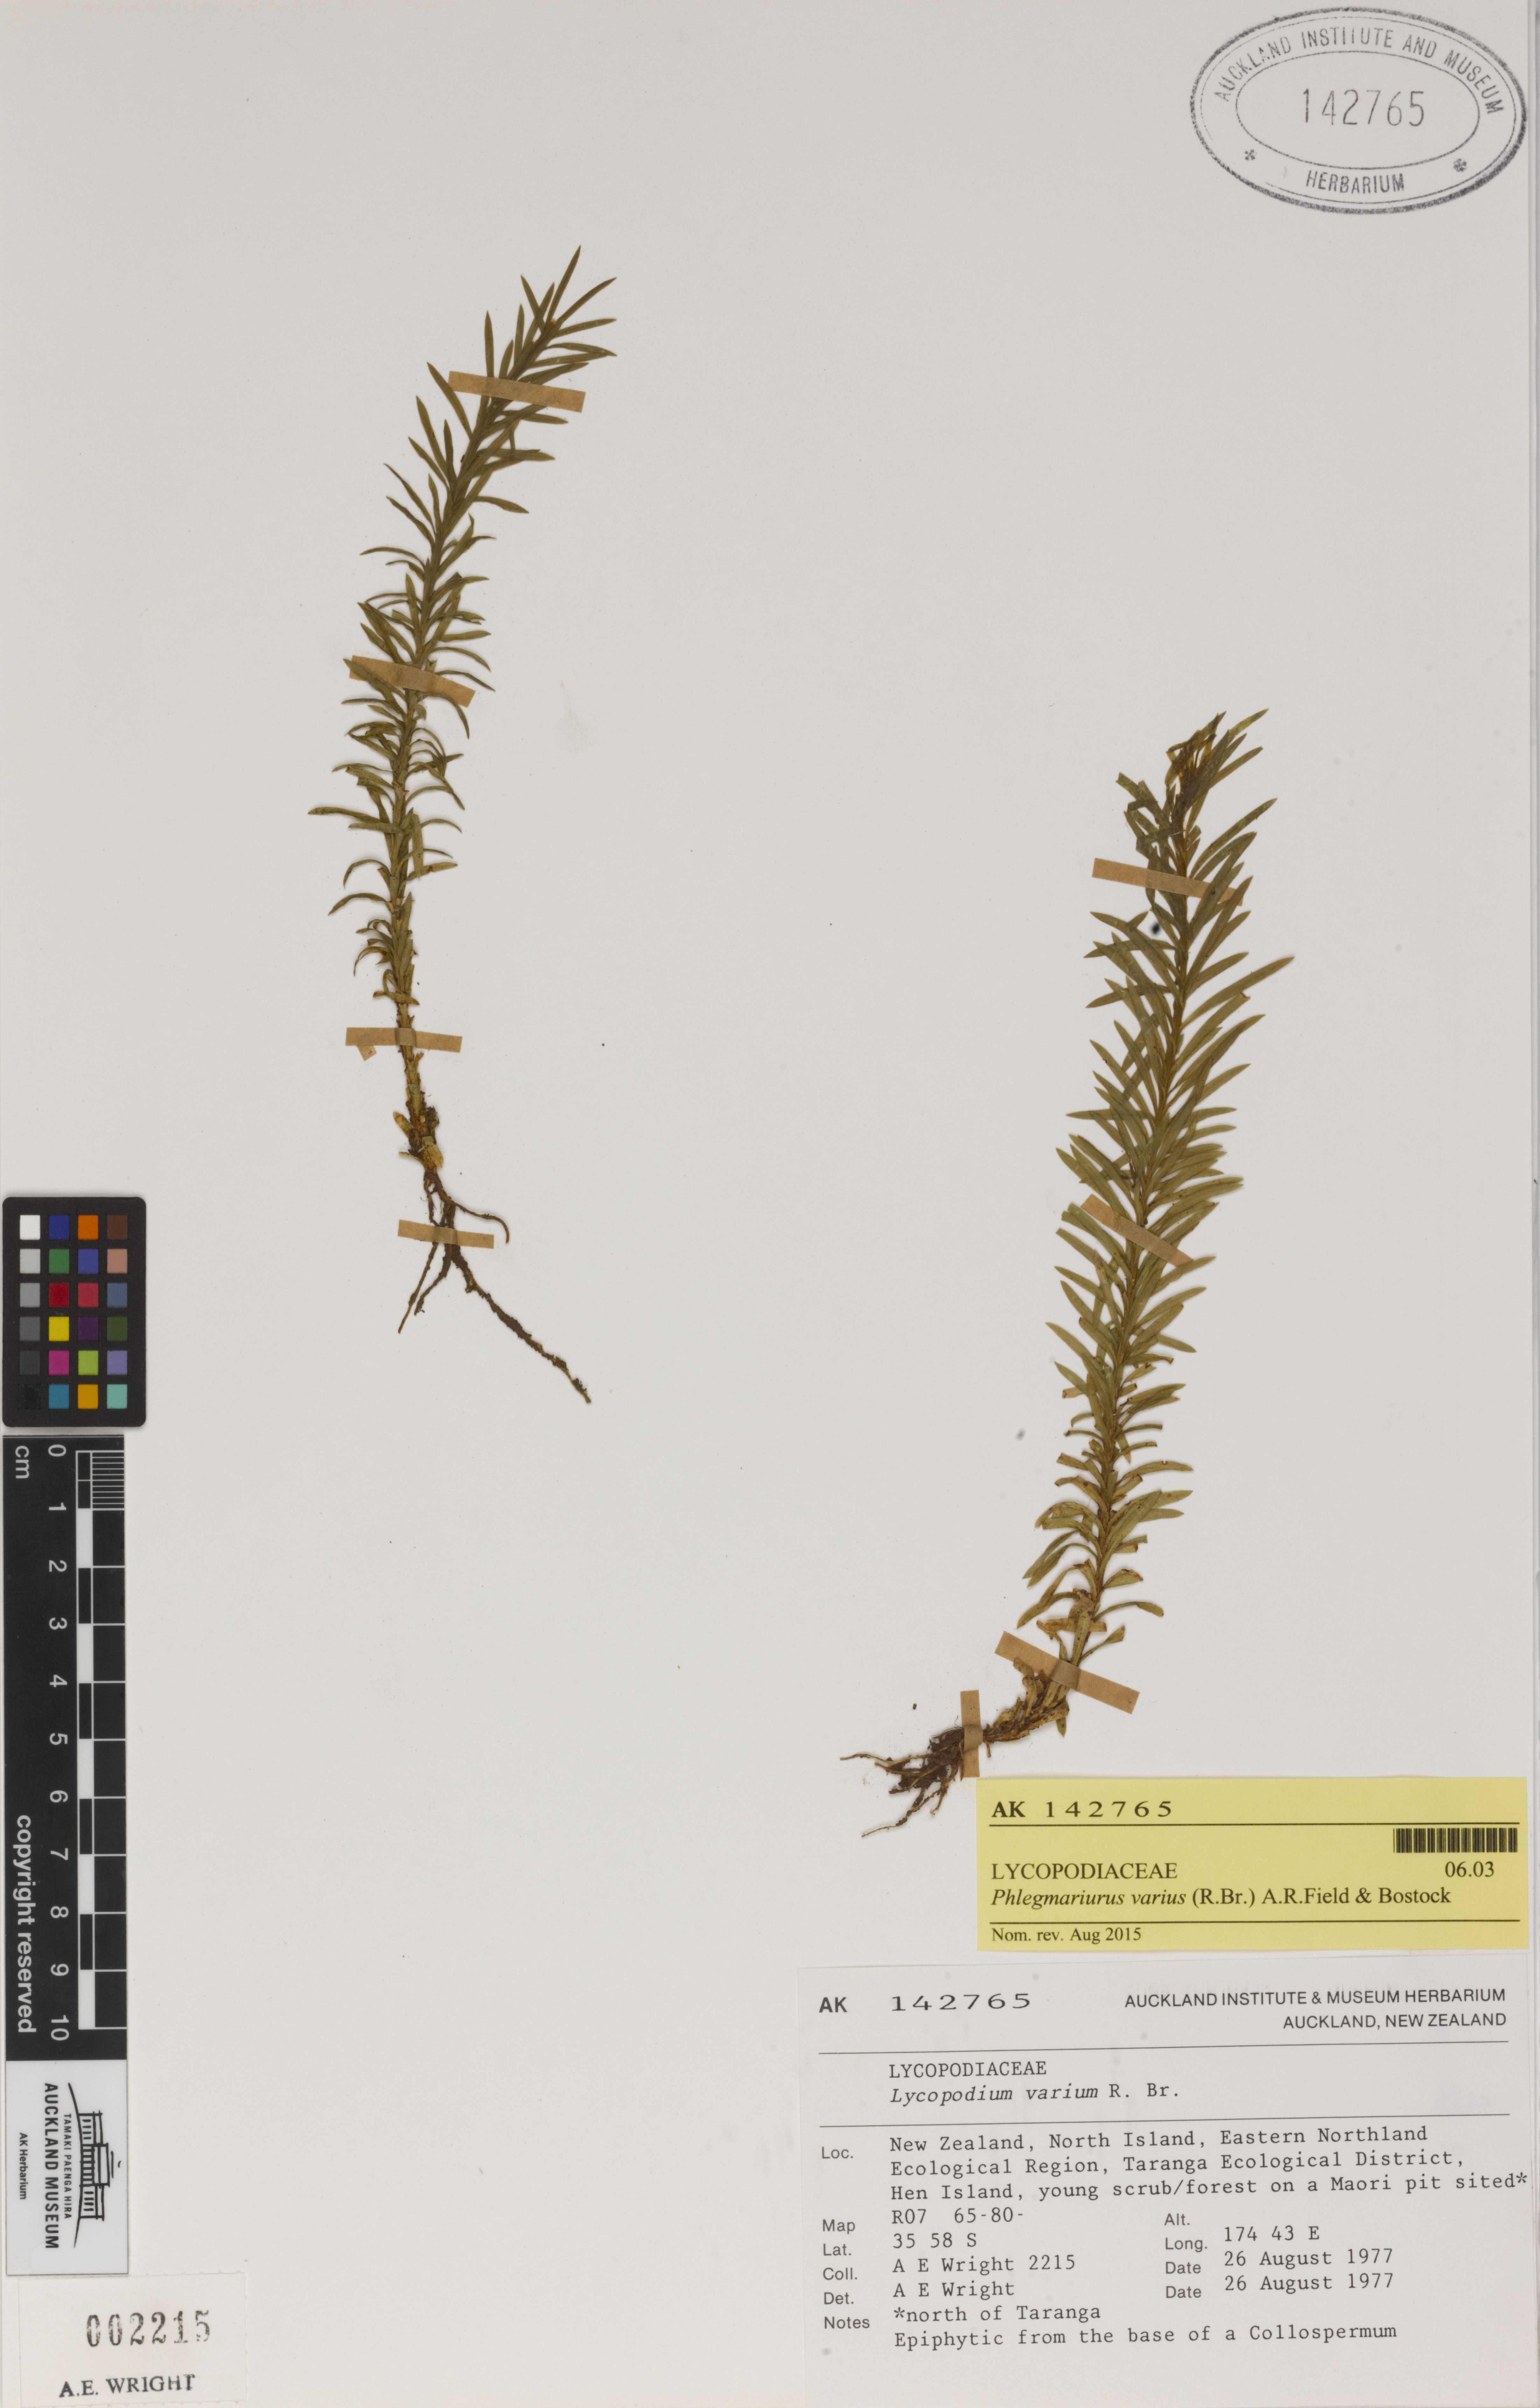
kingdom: Plantae
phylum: Tracheophyta
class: Lycopodiopsida
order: Lycopodiales
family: Lycopodiaceae
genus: Phlegmariurus
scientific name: Phlegmariurus
